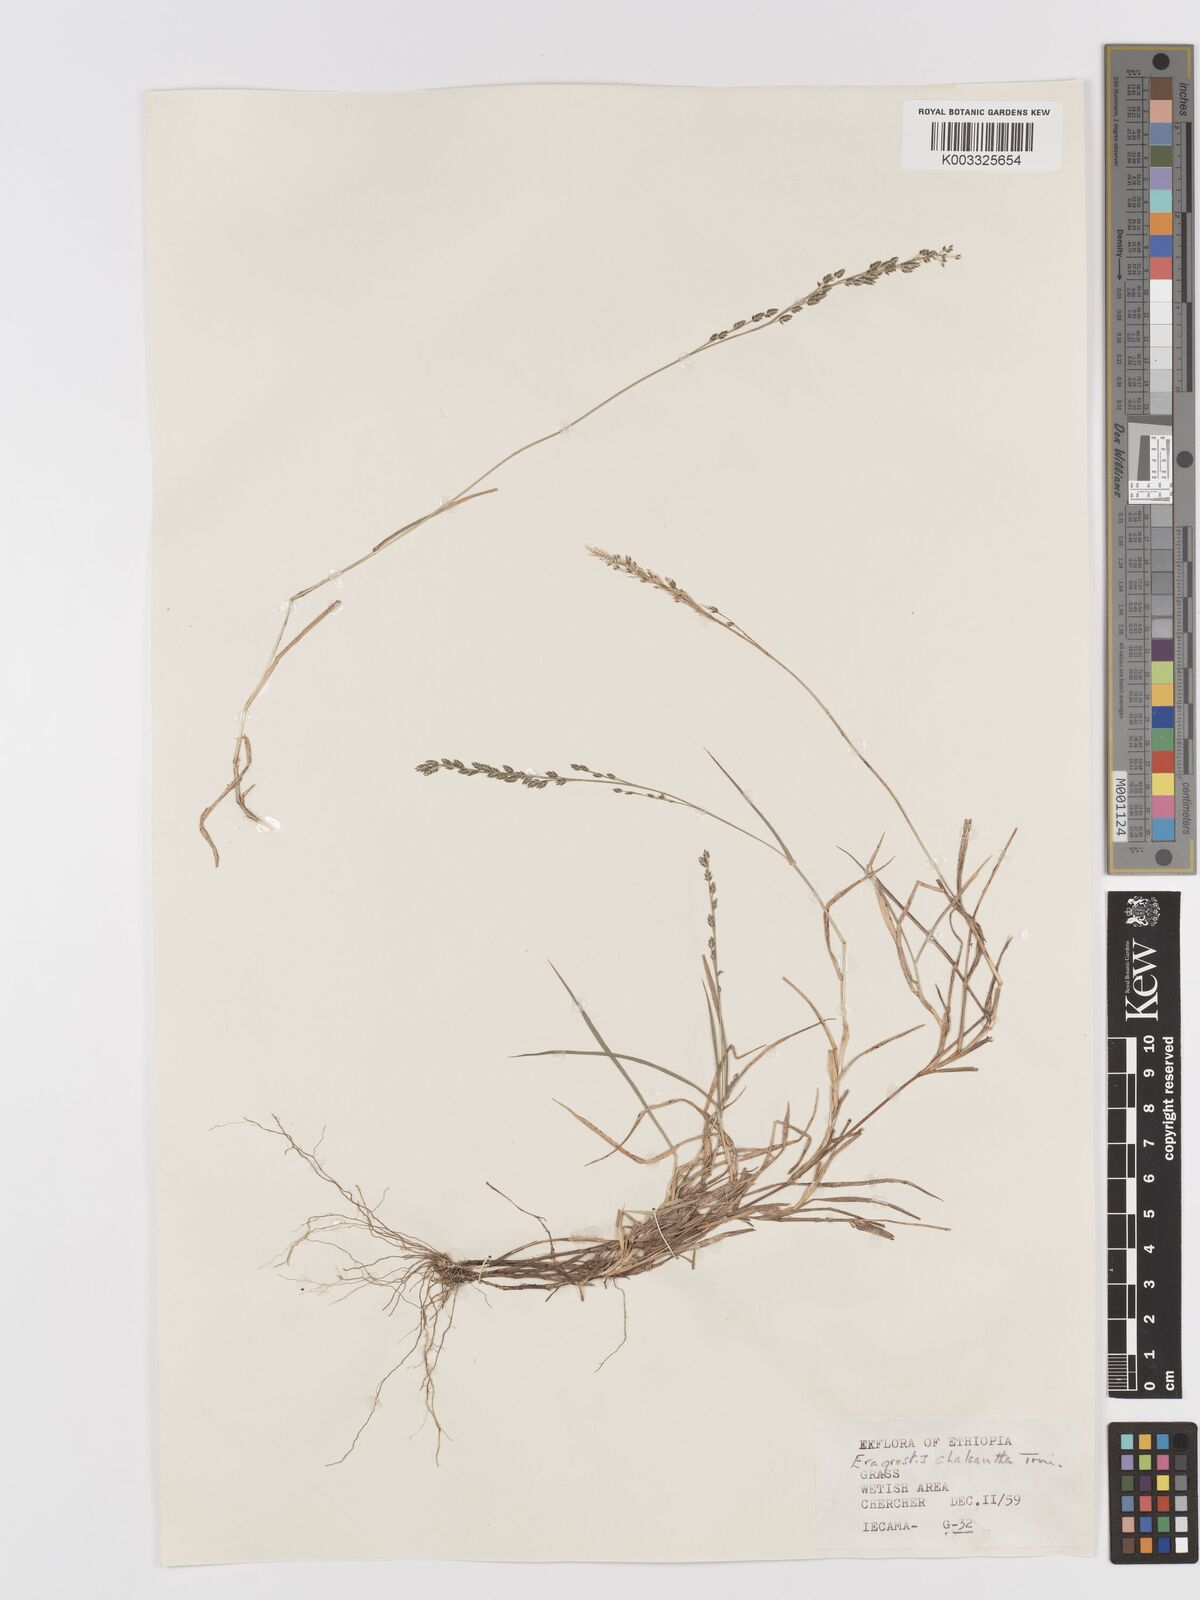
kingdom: Plantae
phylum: Tracheophyta
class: Liliopsida
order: Poales
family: Poaceae
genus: Eragrostis
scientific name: Eragrostis schweinfurthii
